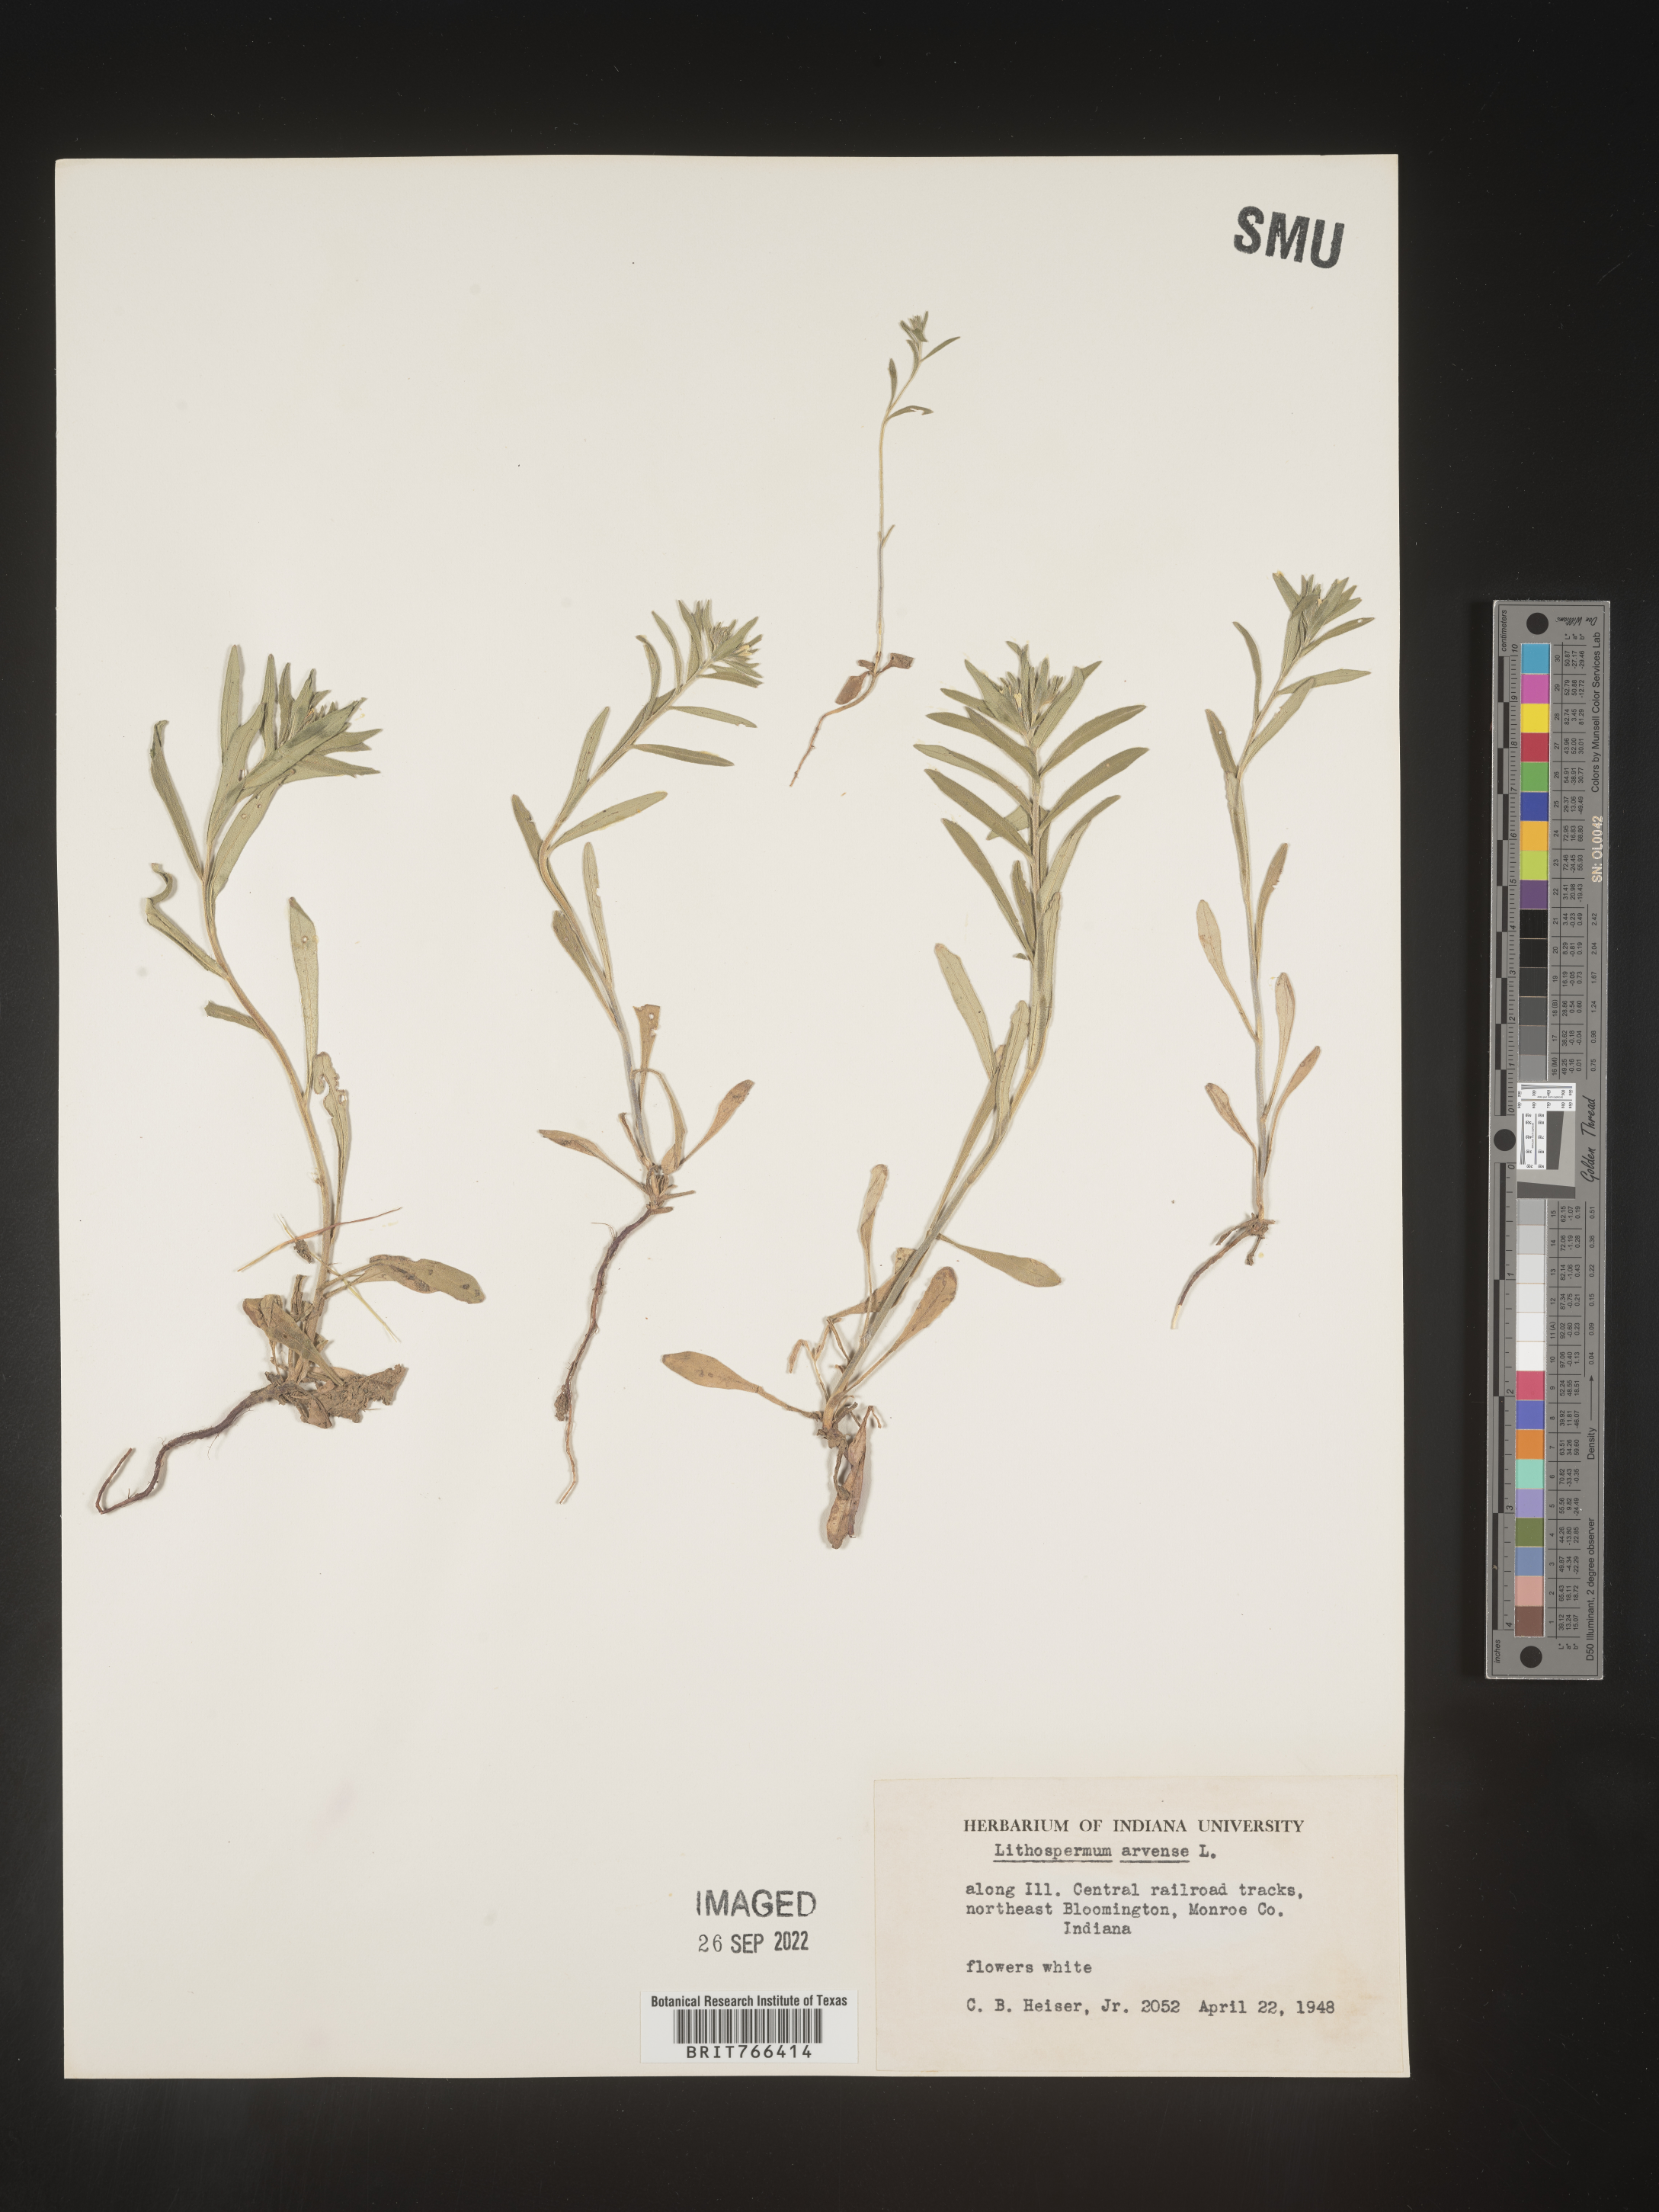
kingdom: Plantae
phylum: Tracheophyta
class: Magnoliopsida
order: Boraginales
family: Boraginaceae
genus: Buglossoides
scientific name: Buglossoides arvensis
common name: Corn gromwell
